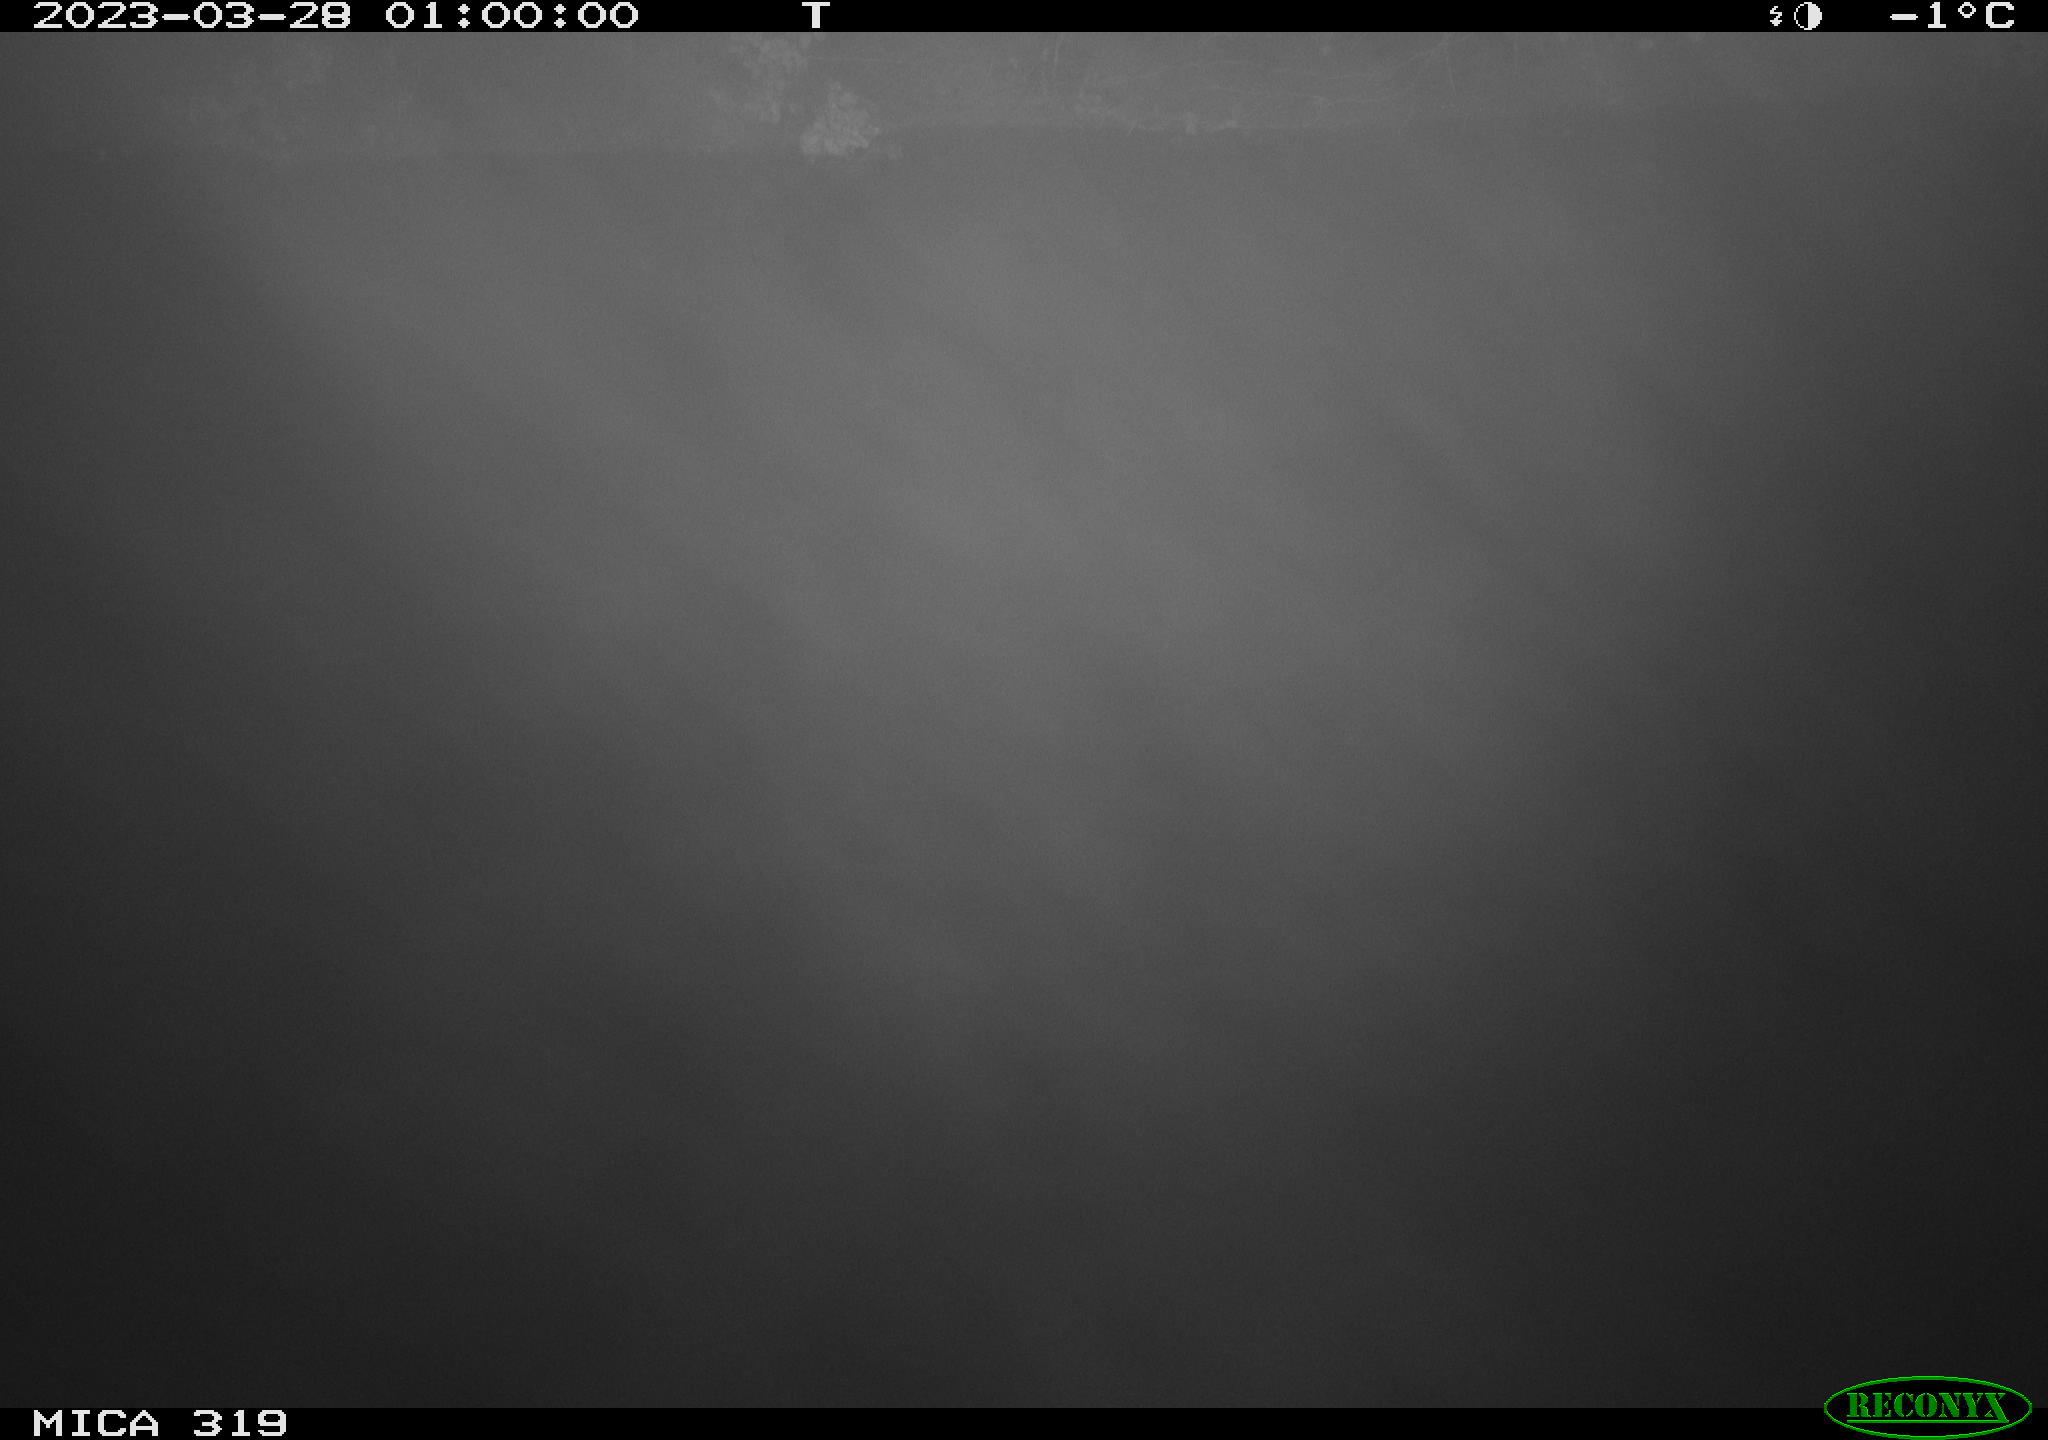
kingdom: Animalia
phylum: Chordata
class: Mammalia
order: Rodentia
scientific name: Rodentia
